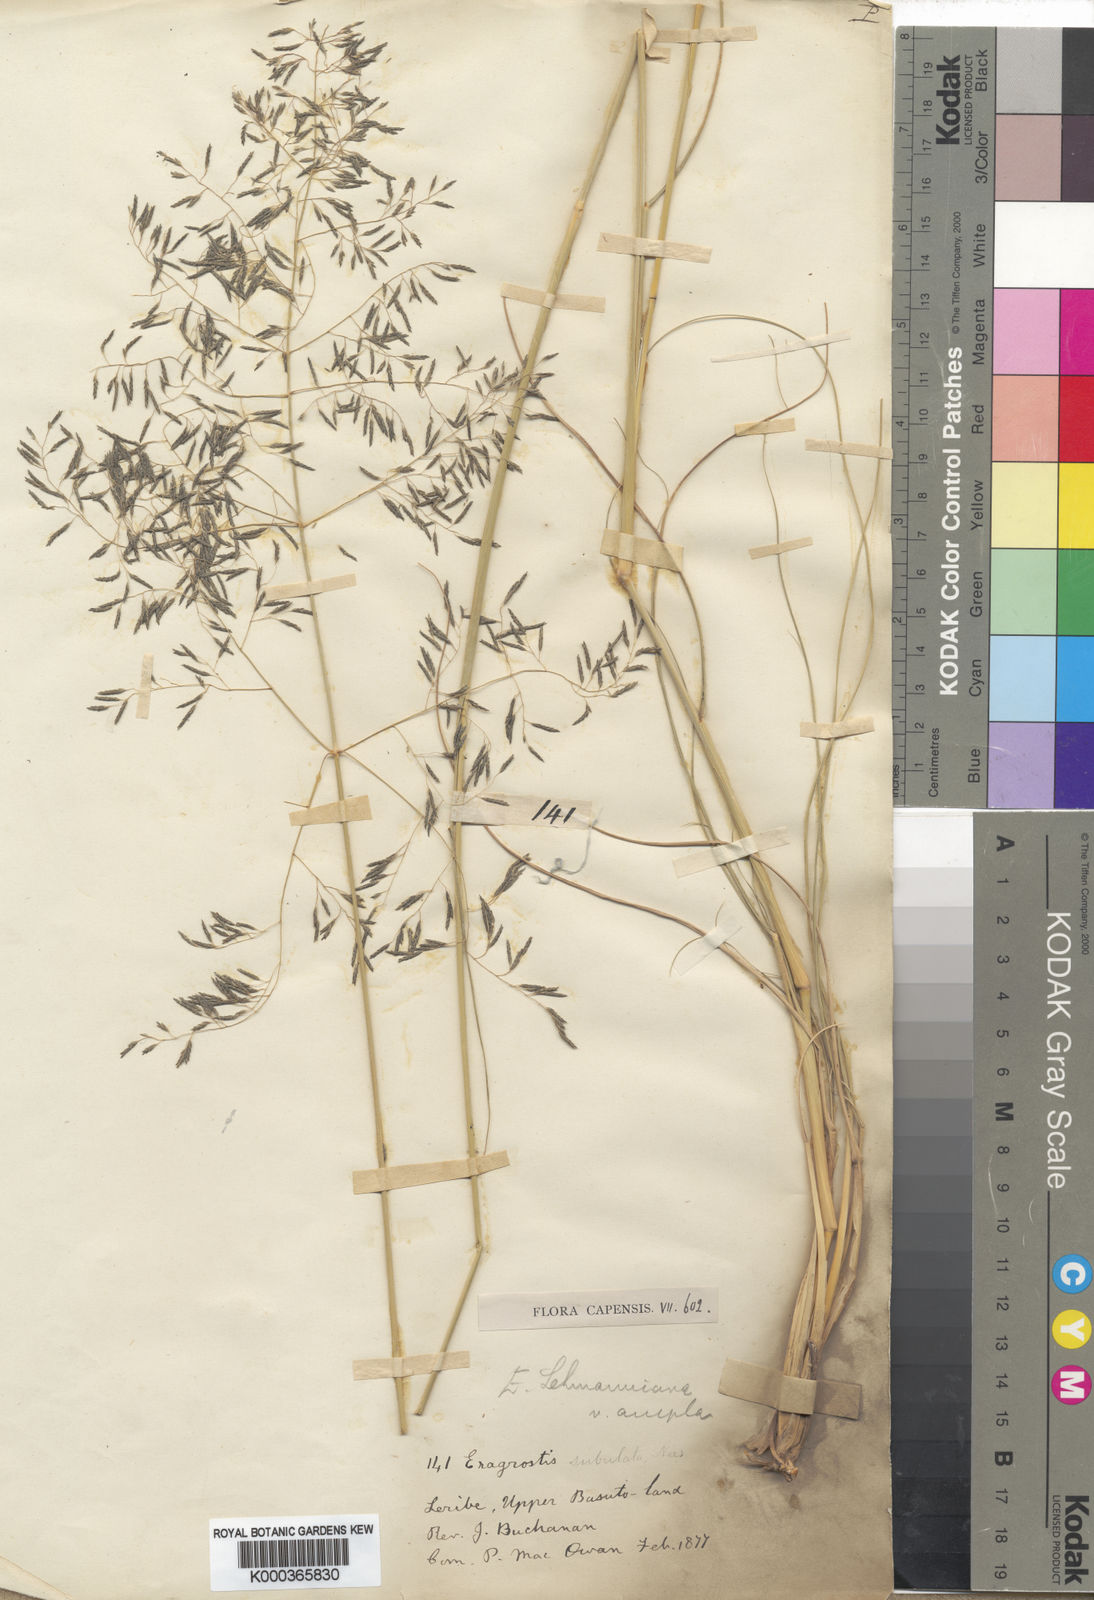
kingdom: Plantae
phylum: Tracheophyta
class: Liliopsida
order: Poales
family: Poaceae
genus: Eragrostis
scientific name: Eragrostis curvula
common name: African love-grass
